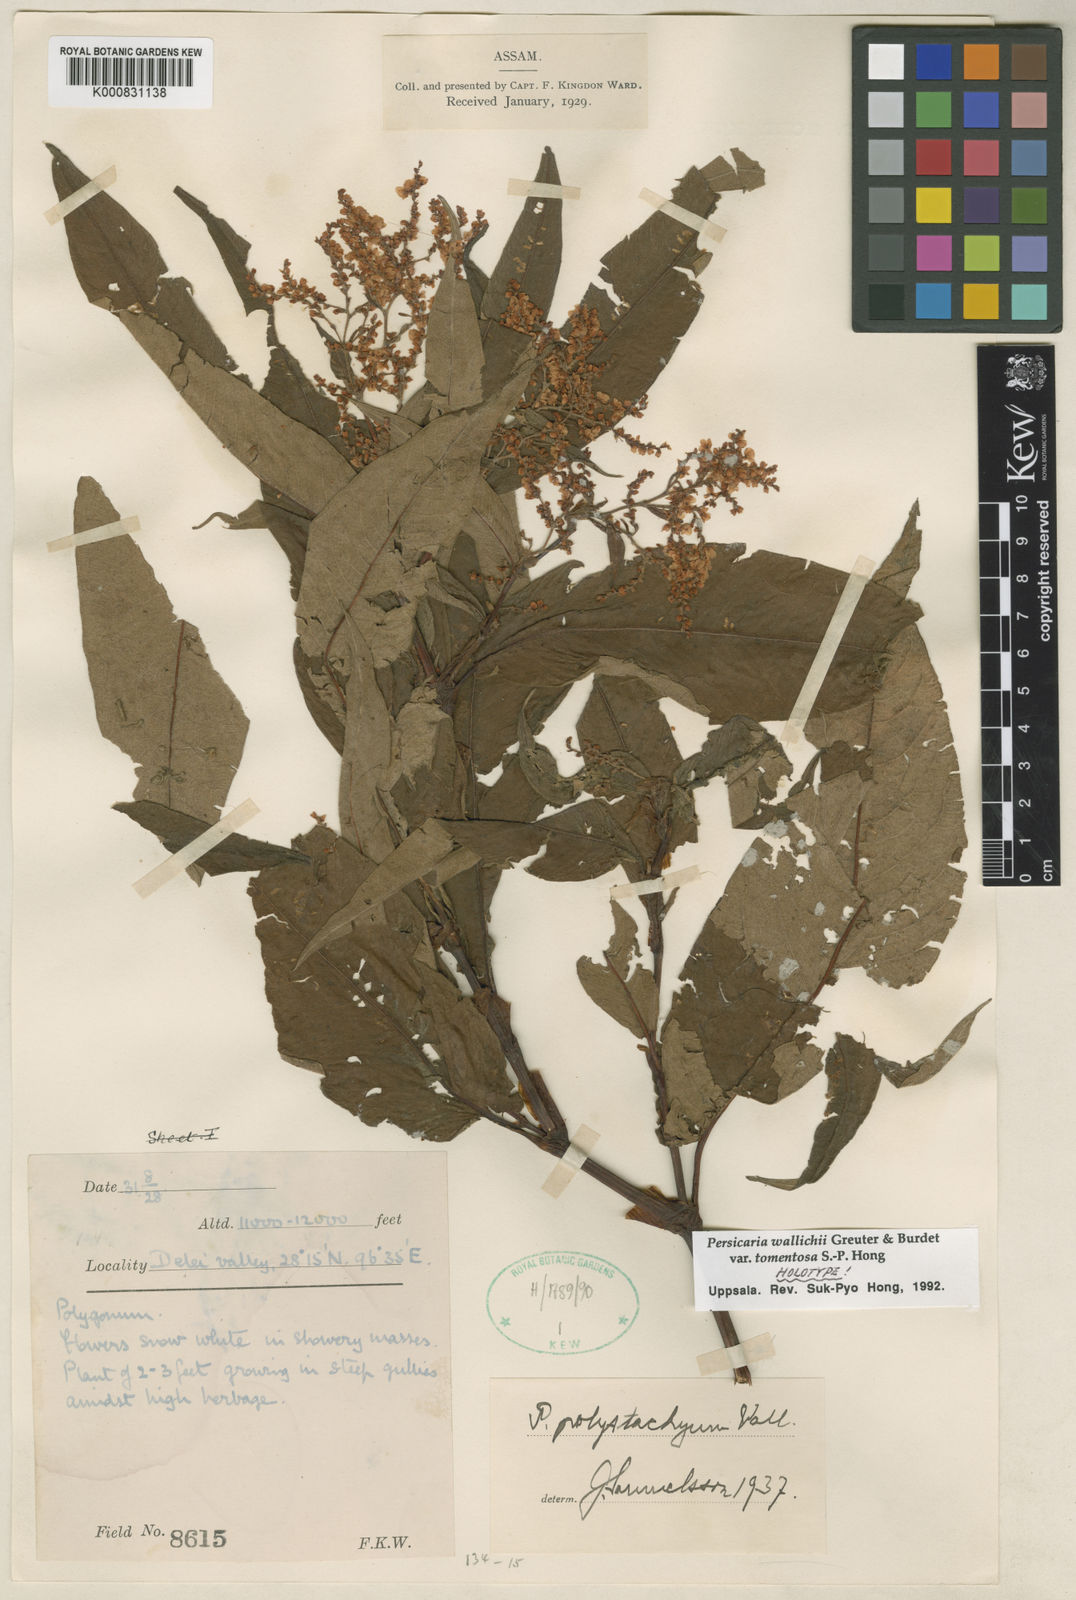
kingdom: Plantae
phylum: Tracheophyta
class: Magnoliopsida
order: Caryophyllales
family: Polygonaceae
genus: Koenigia
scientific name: Koenigia
